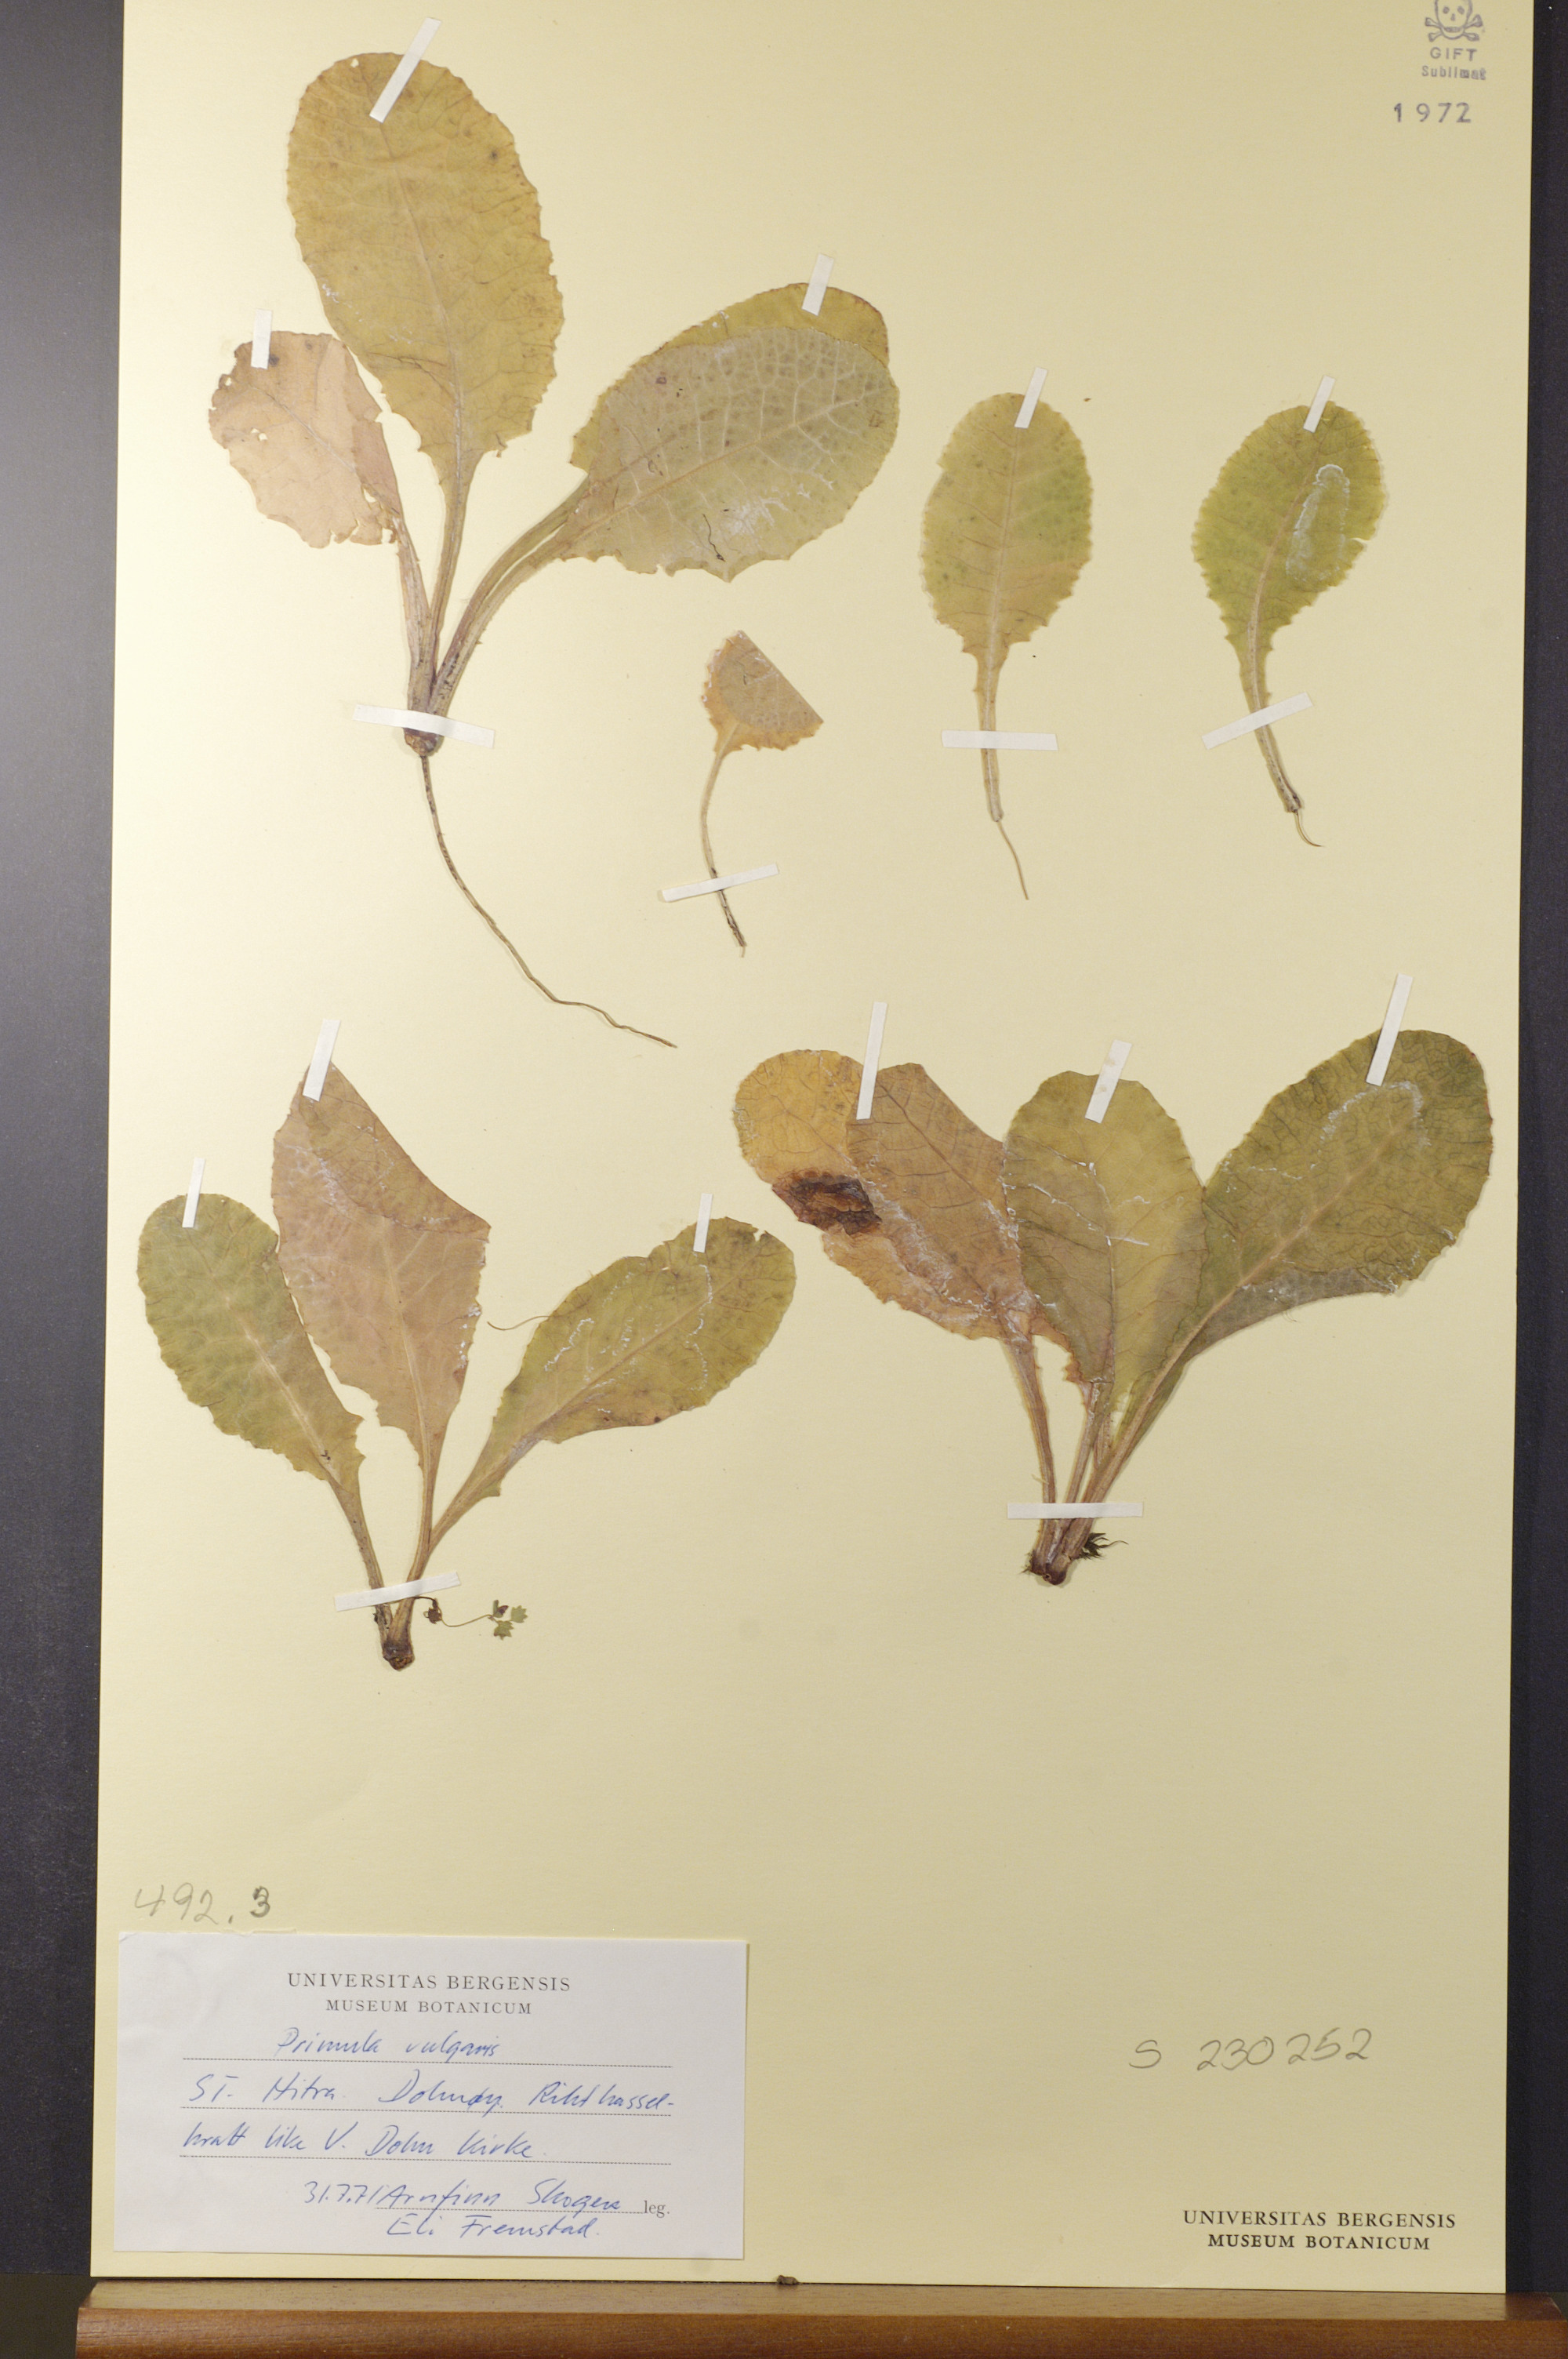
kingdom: Plantae
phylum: Tracheophyta
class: Magnoliopsida
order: Ericales
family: Primulaceae
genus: Primula
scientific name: Primula vulgaris
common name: Primrose
